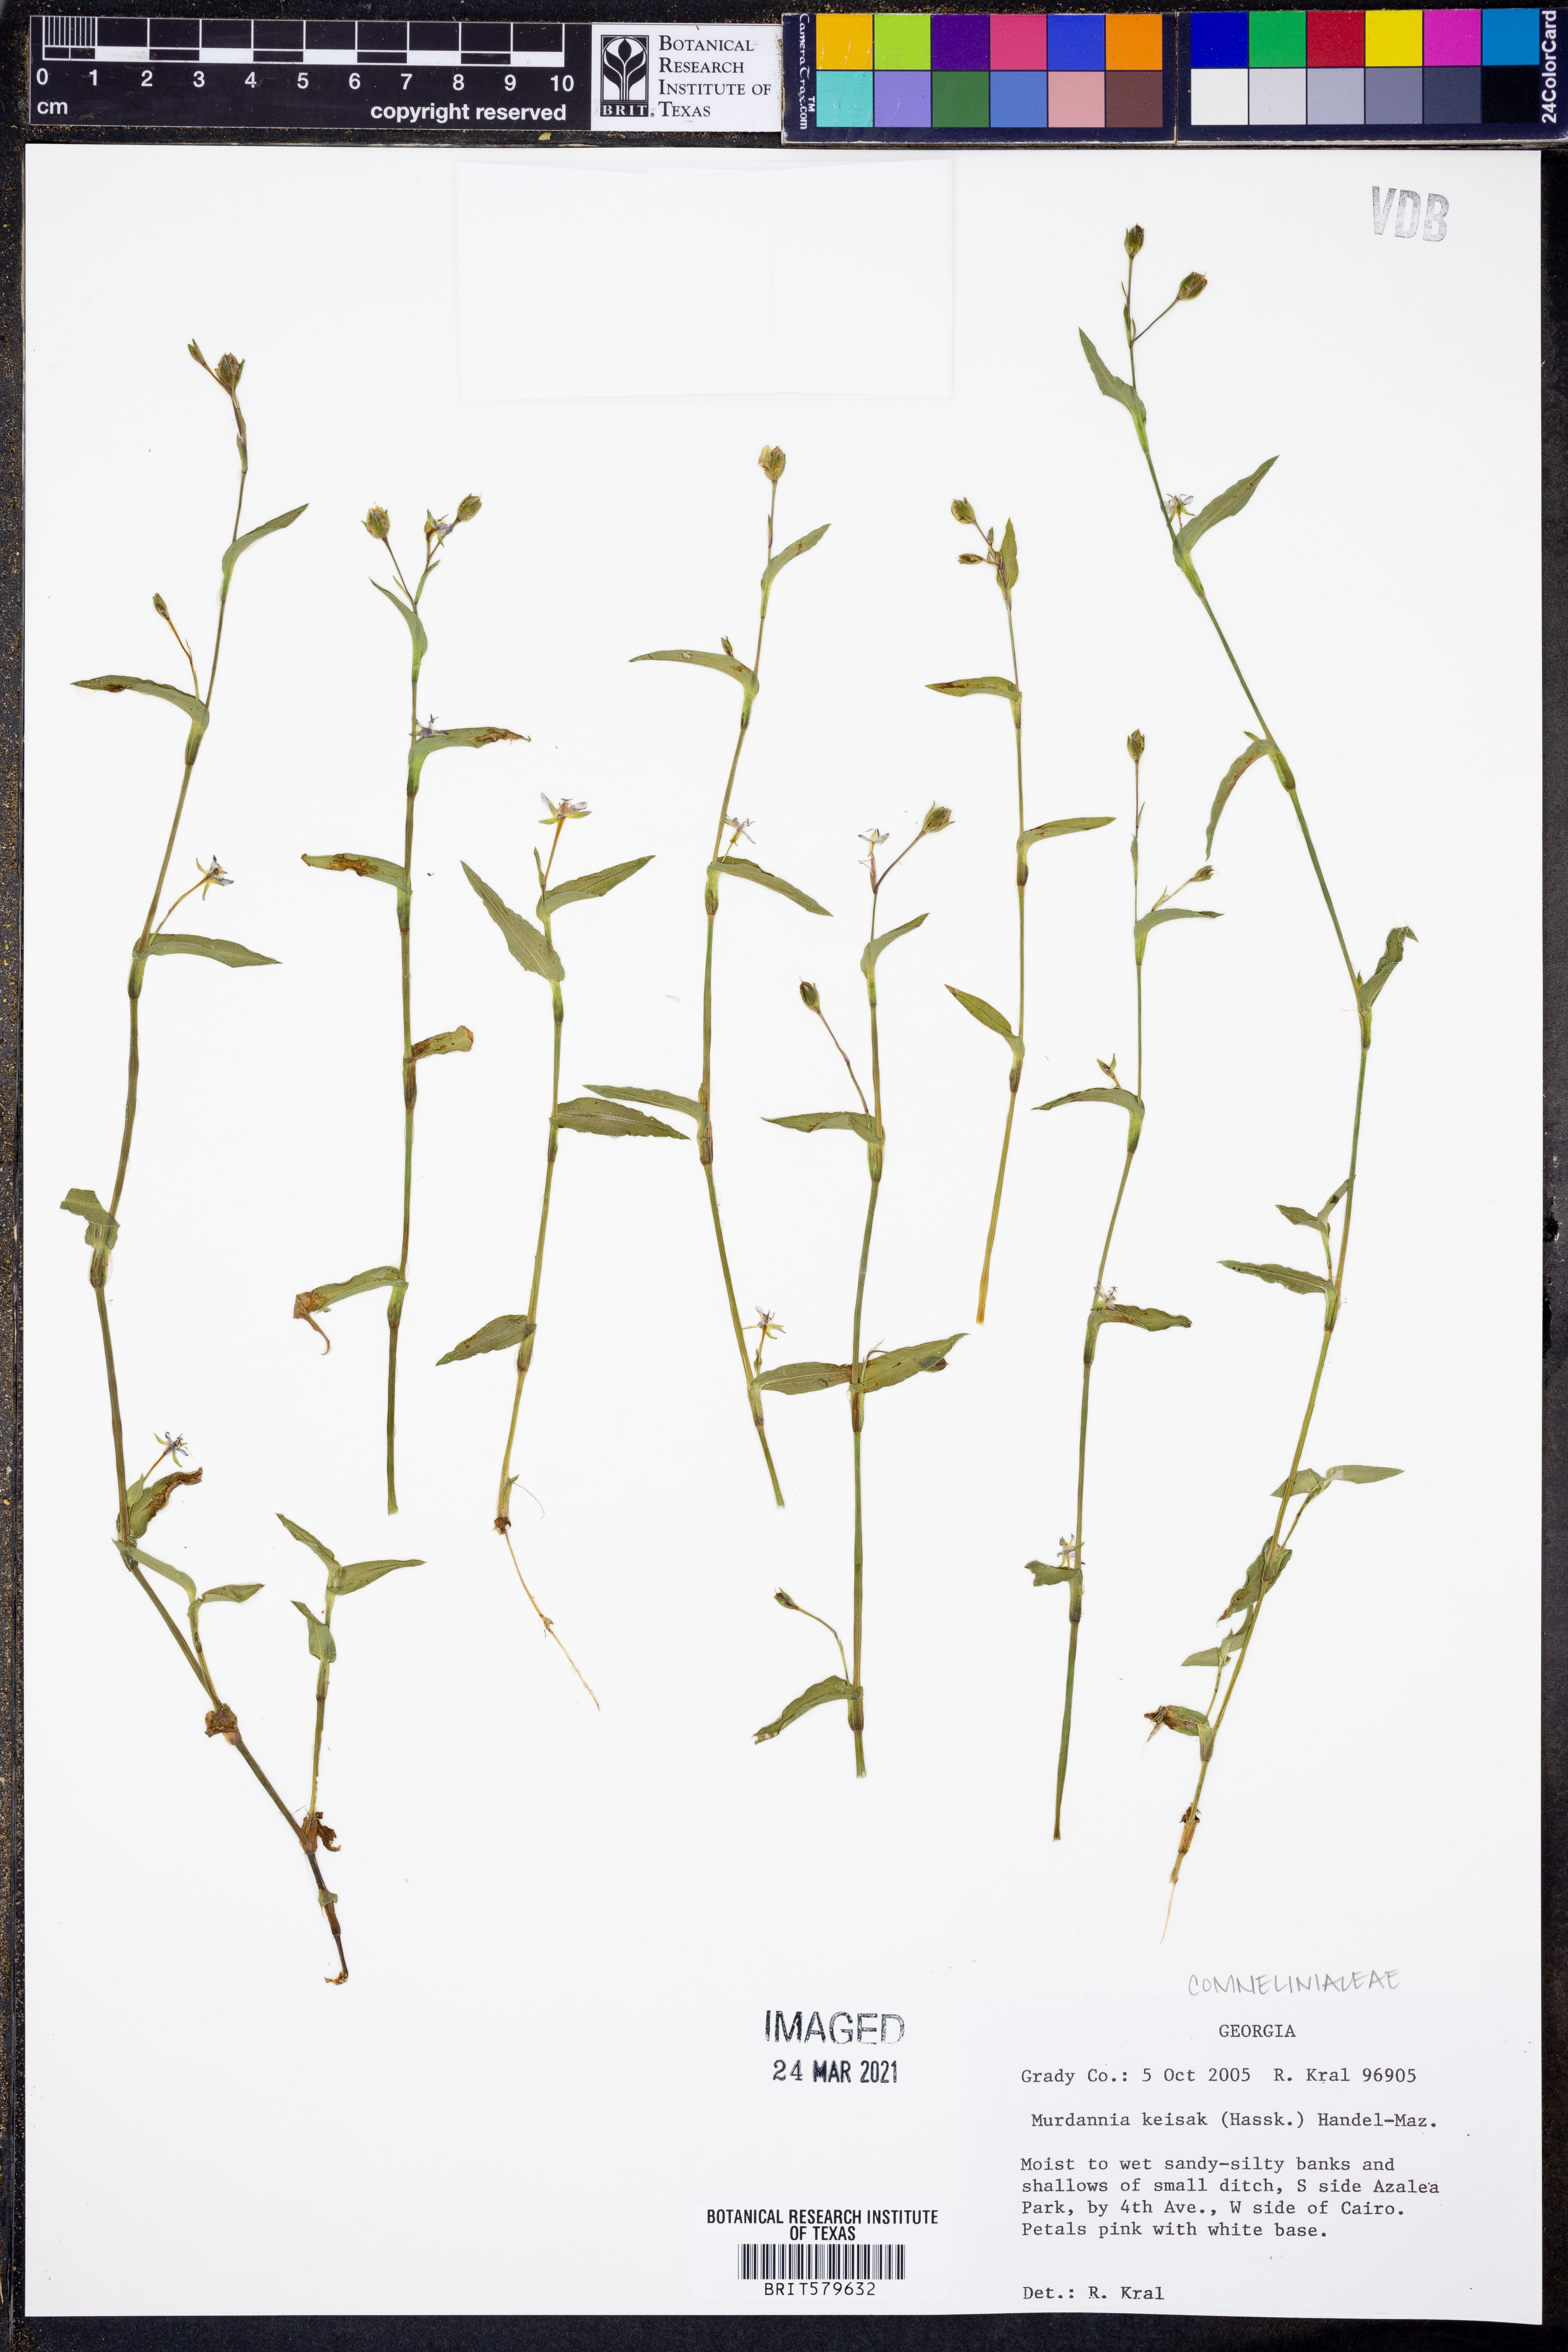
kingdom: Plantae
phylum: Tracheophyta
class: Liliopsida
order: Commelinales
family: Commelinaceae
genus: Murdannia
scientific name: Murdannia keisak
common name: Wartremoving herb
